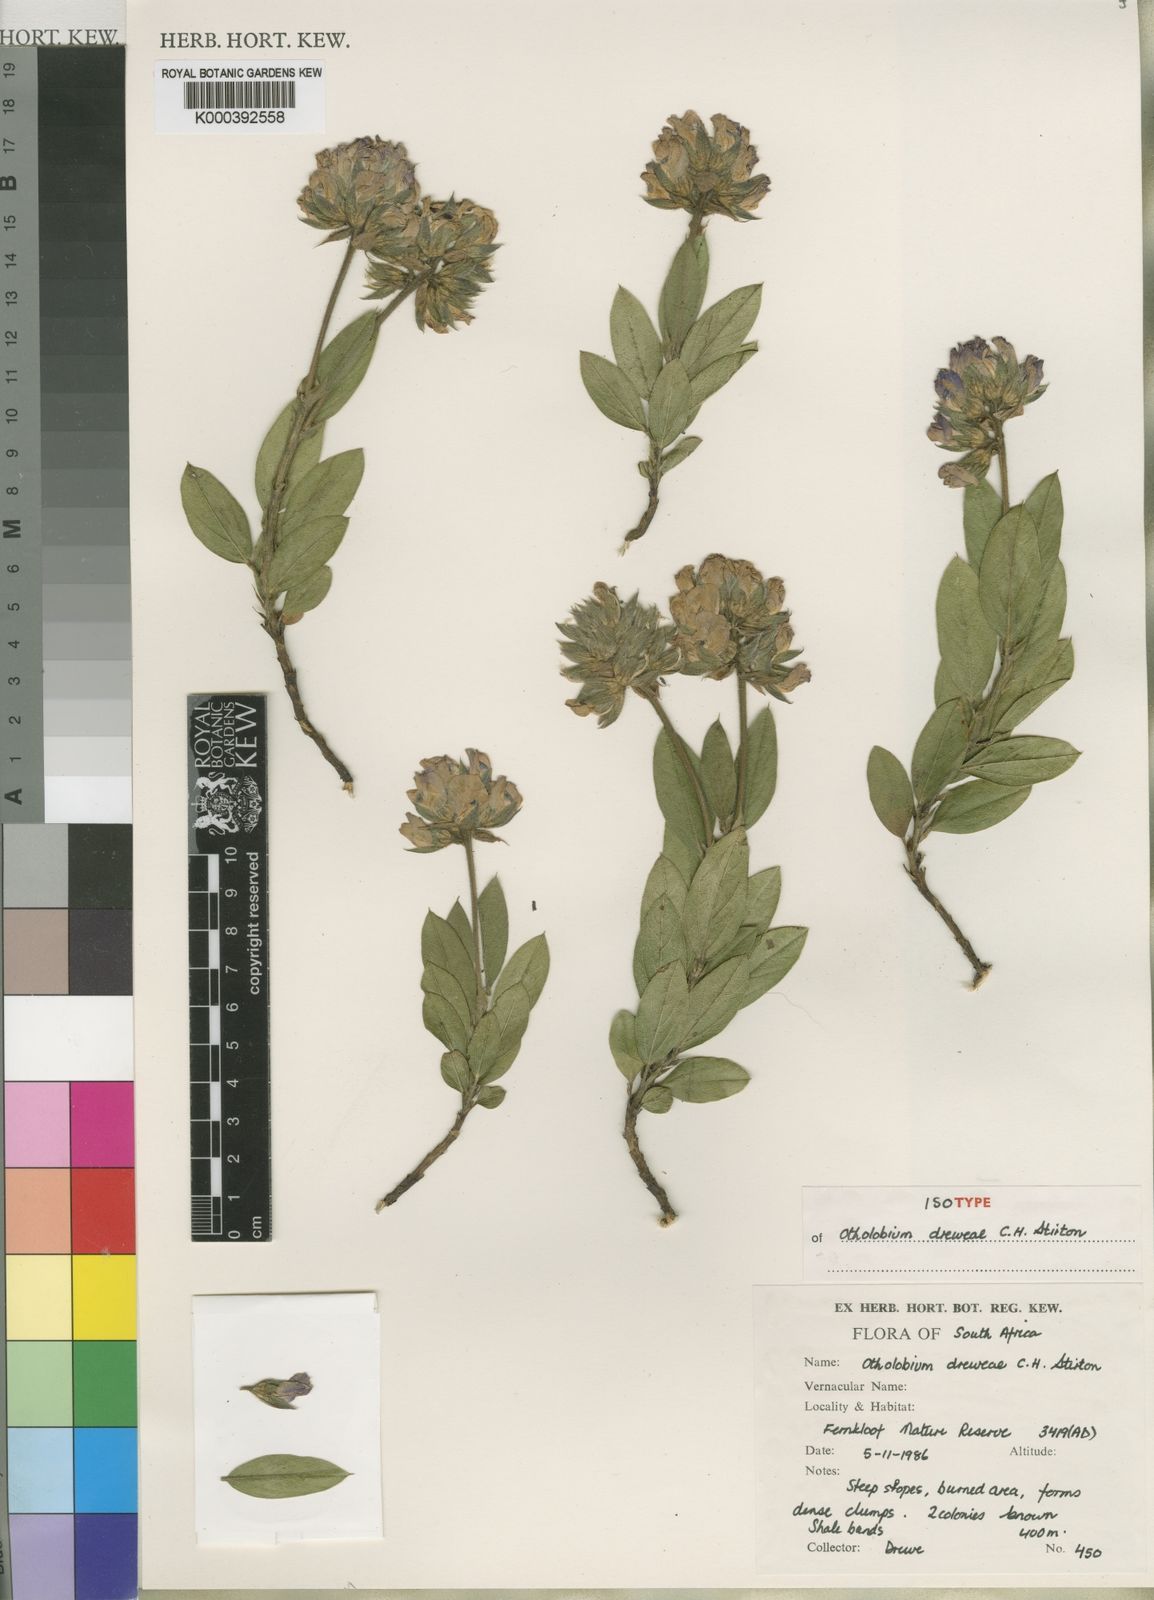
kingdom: Plantae
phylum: Tracheophyta
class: Magnoliopsida
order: Fabales
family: Fabaceae
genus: Otholobium
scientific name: Otholobium
